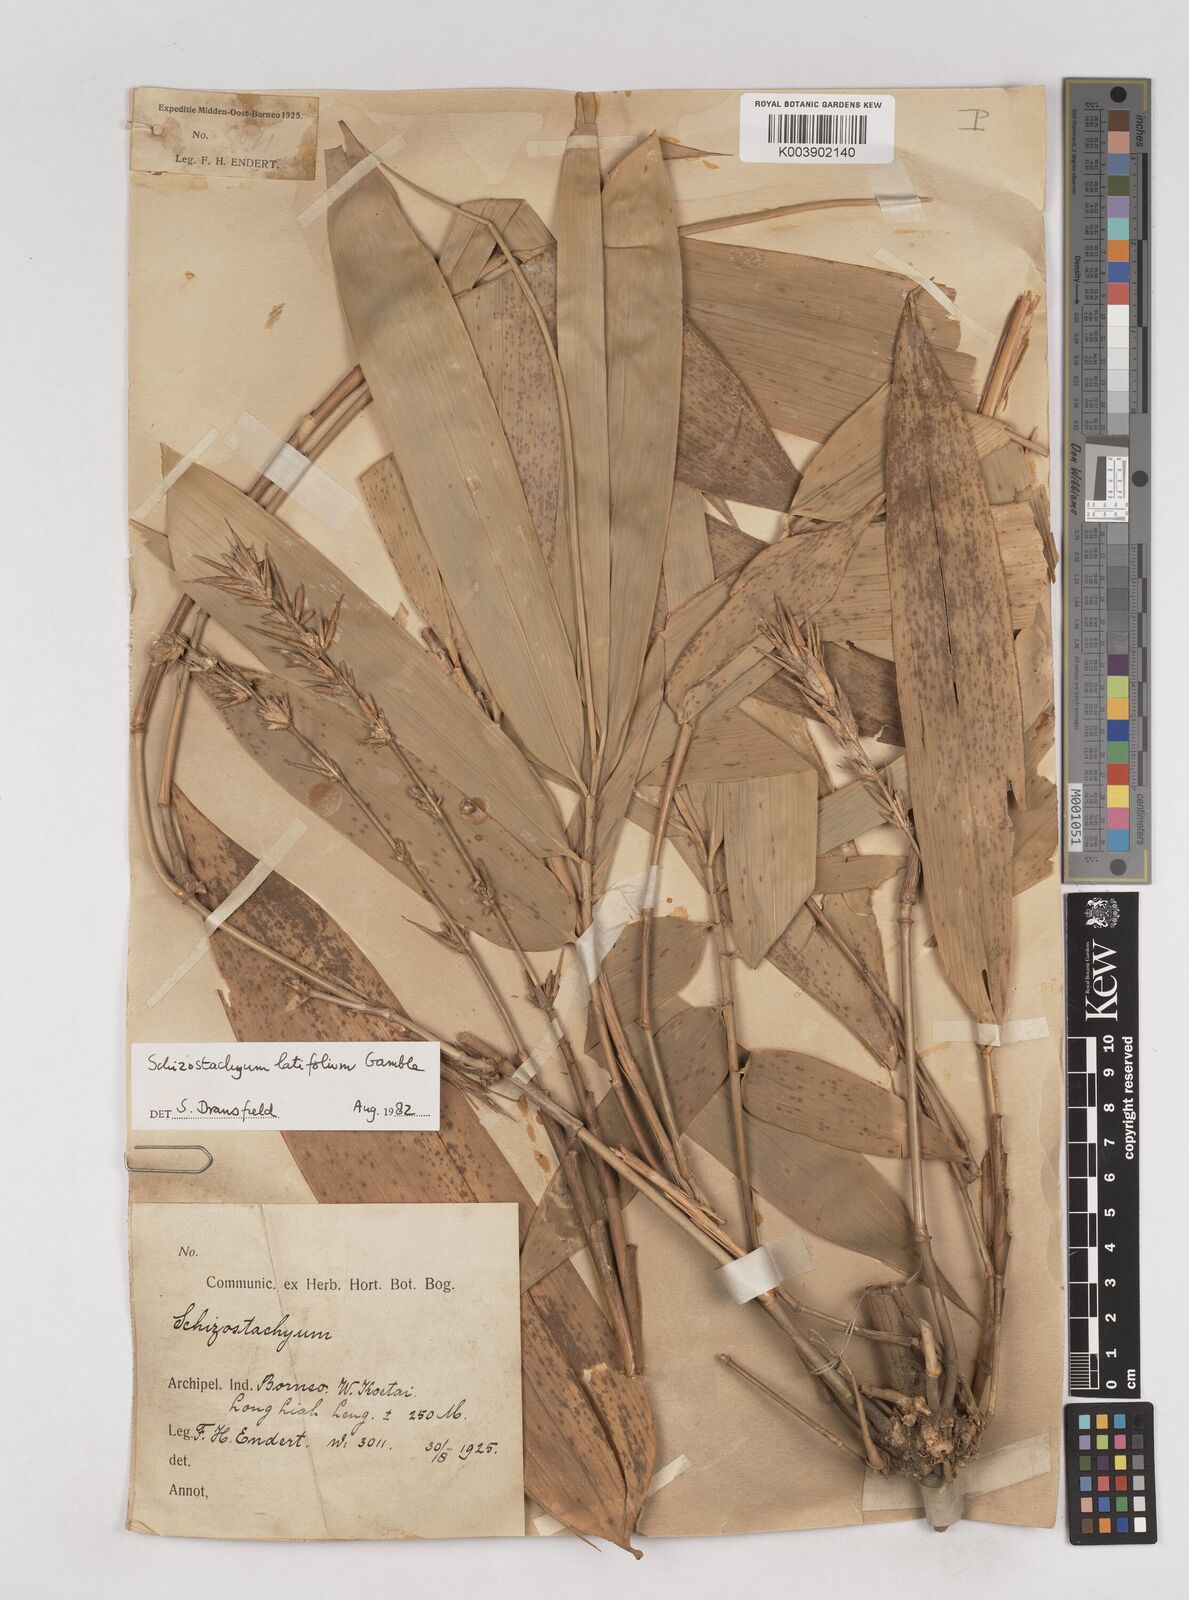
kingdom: Plantae
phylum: Tracheophyta
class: Liliopsida
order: Poales
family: Poaceae
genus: Schizostachyum
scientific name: Schizostachyum
